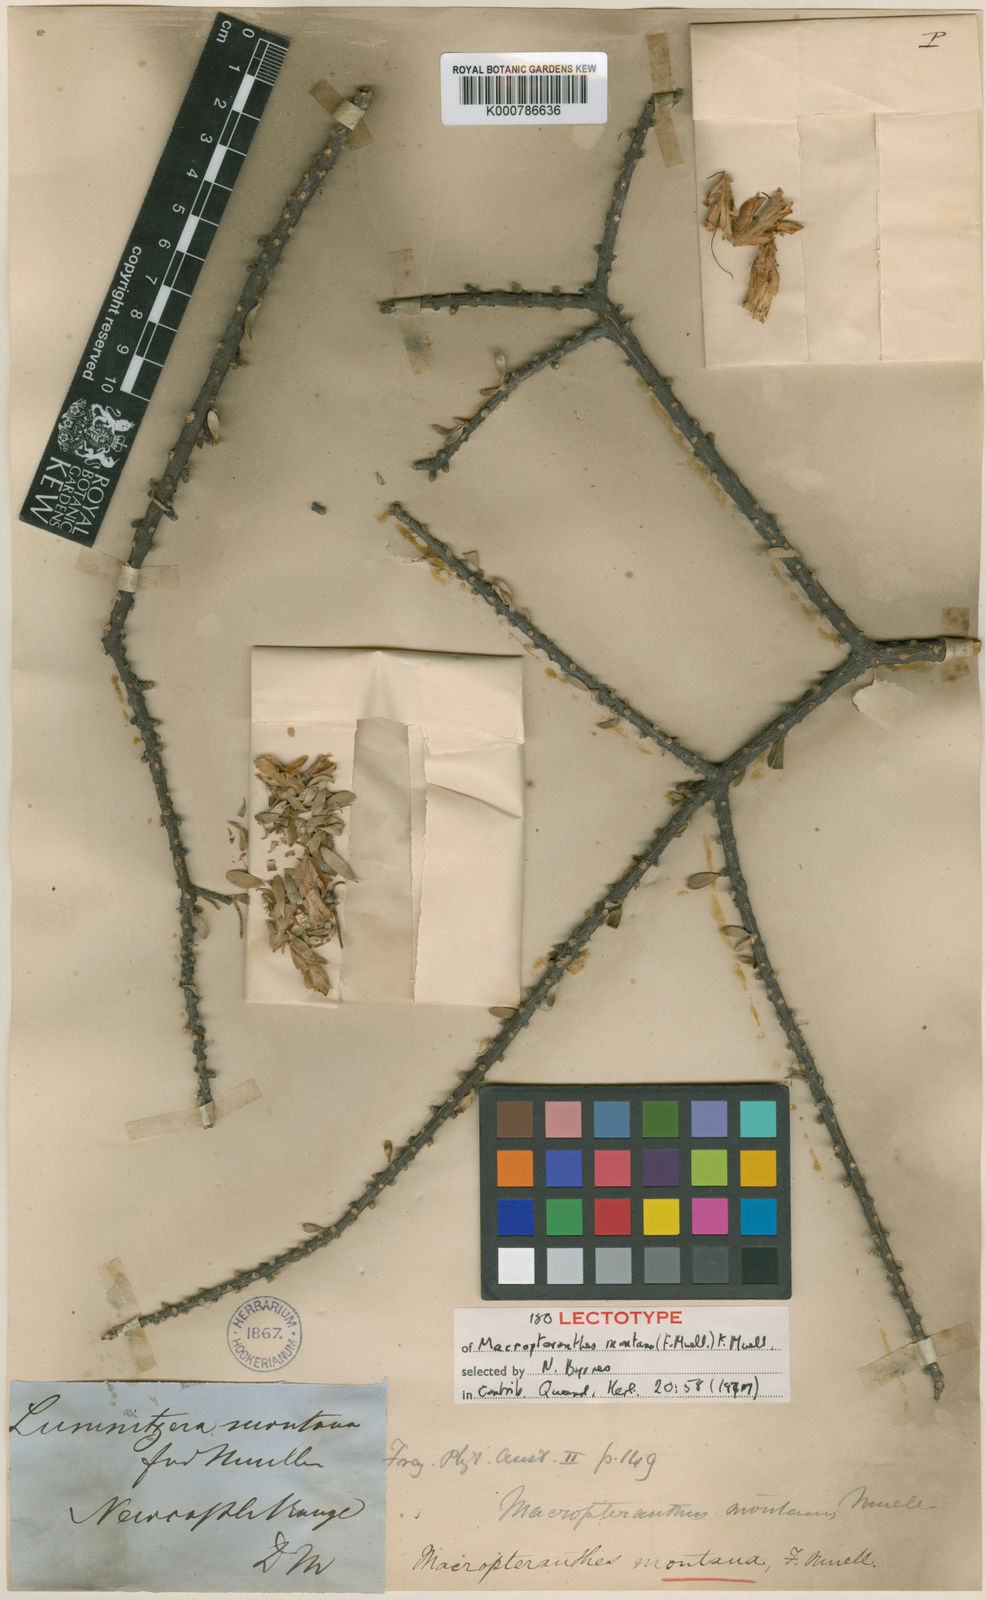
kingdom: Plantae
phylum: Tracheophyta
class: Magnoliopsida
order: Myrtales
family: Combretaceae
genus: Macropteranthes
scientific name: Macropteranthes
